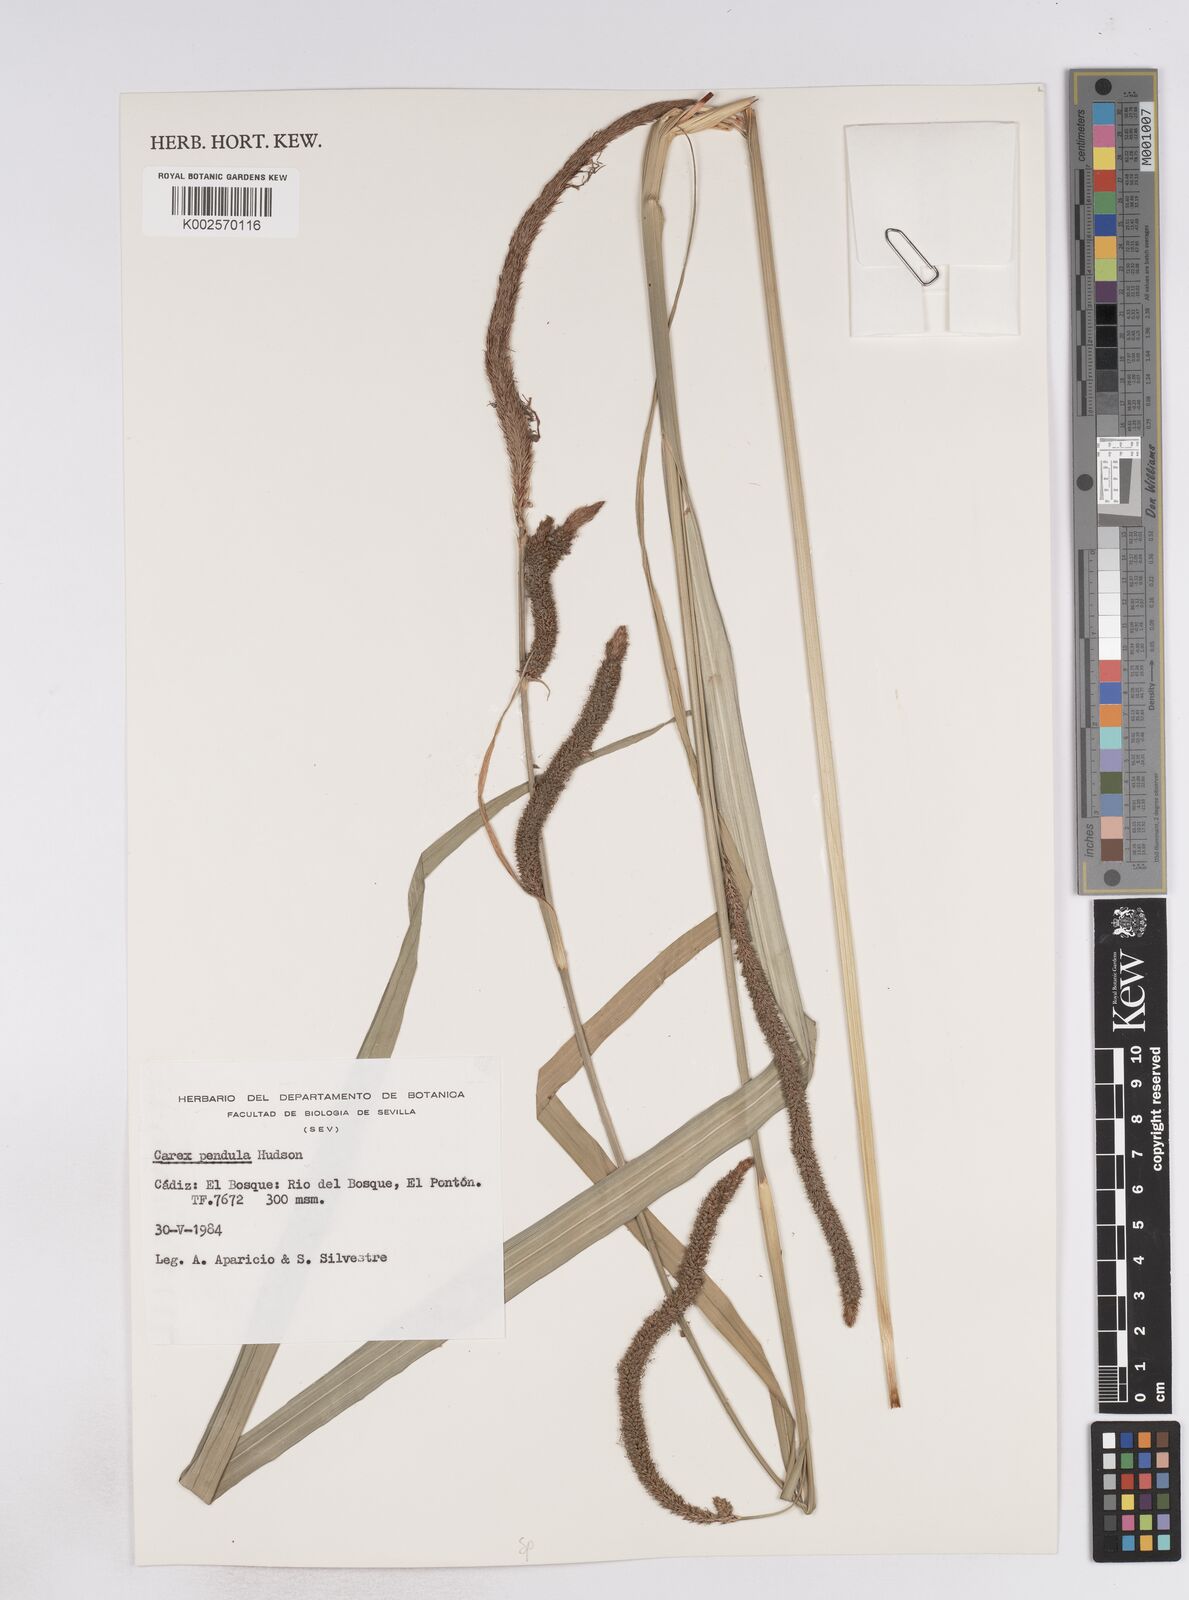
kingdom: Plantae
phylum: Tracheophyta
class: Liliopsida
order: Poales
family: Cyperaceae
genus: Carex
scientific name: Carex pendula
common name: Pendulous sedge
